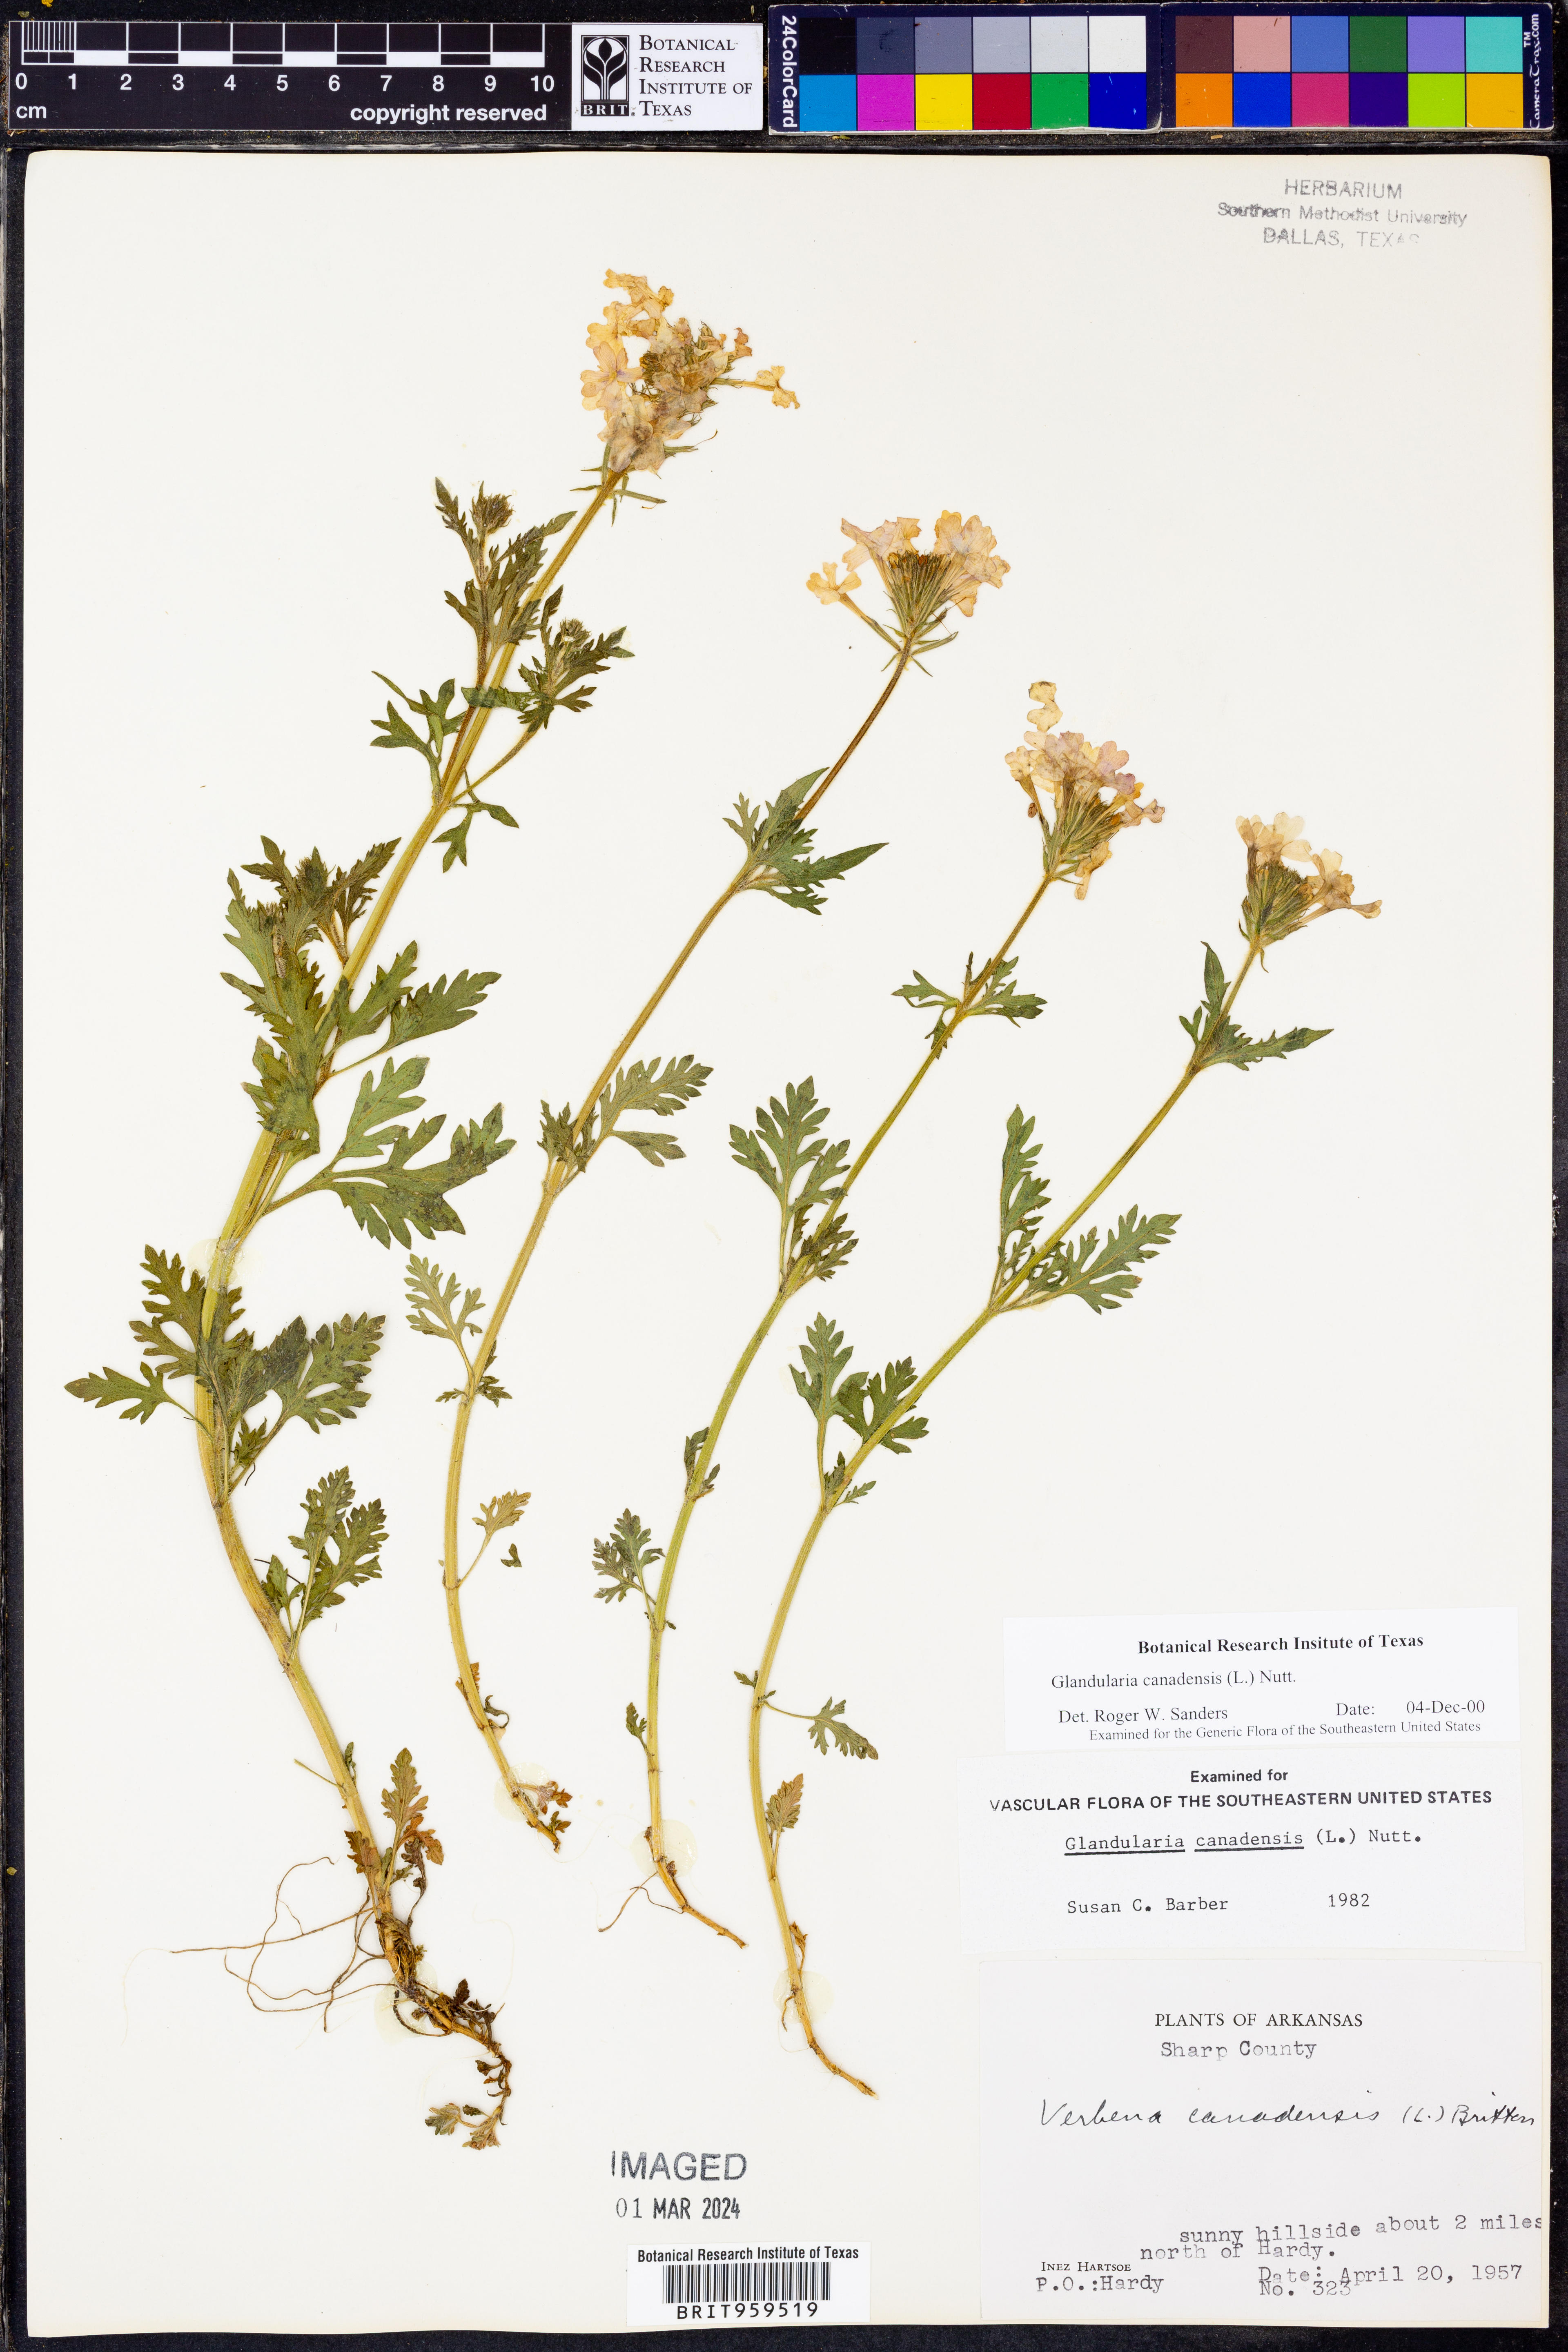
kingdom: Plantae
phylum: Tracheophyta
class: Magnoliopsida
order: Lamiales
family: Verbenaceae
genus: Verbena
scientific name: Verbena canadensis
